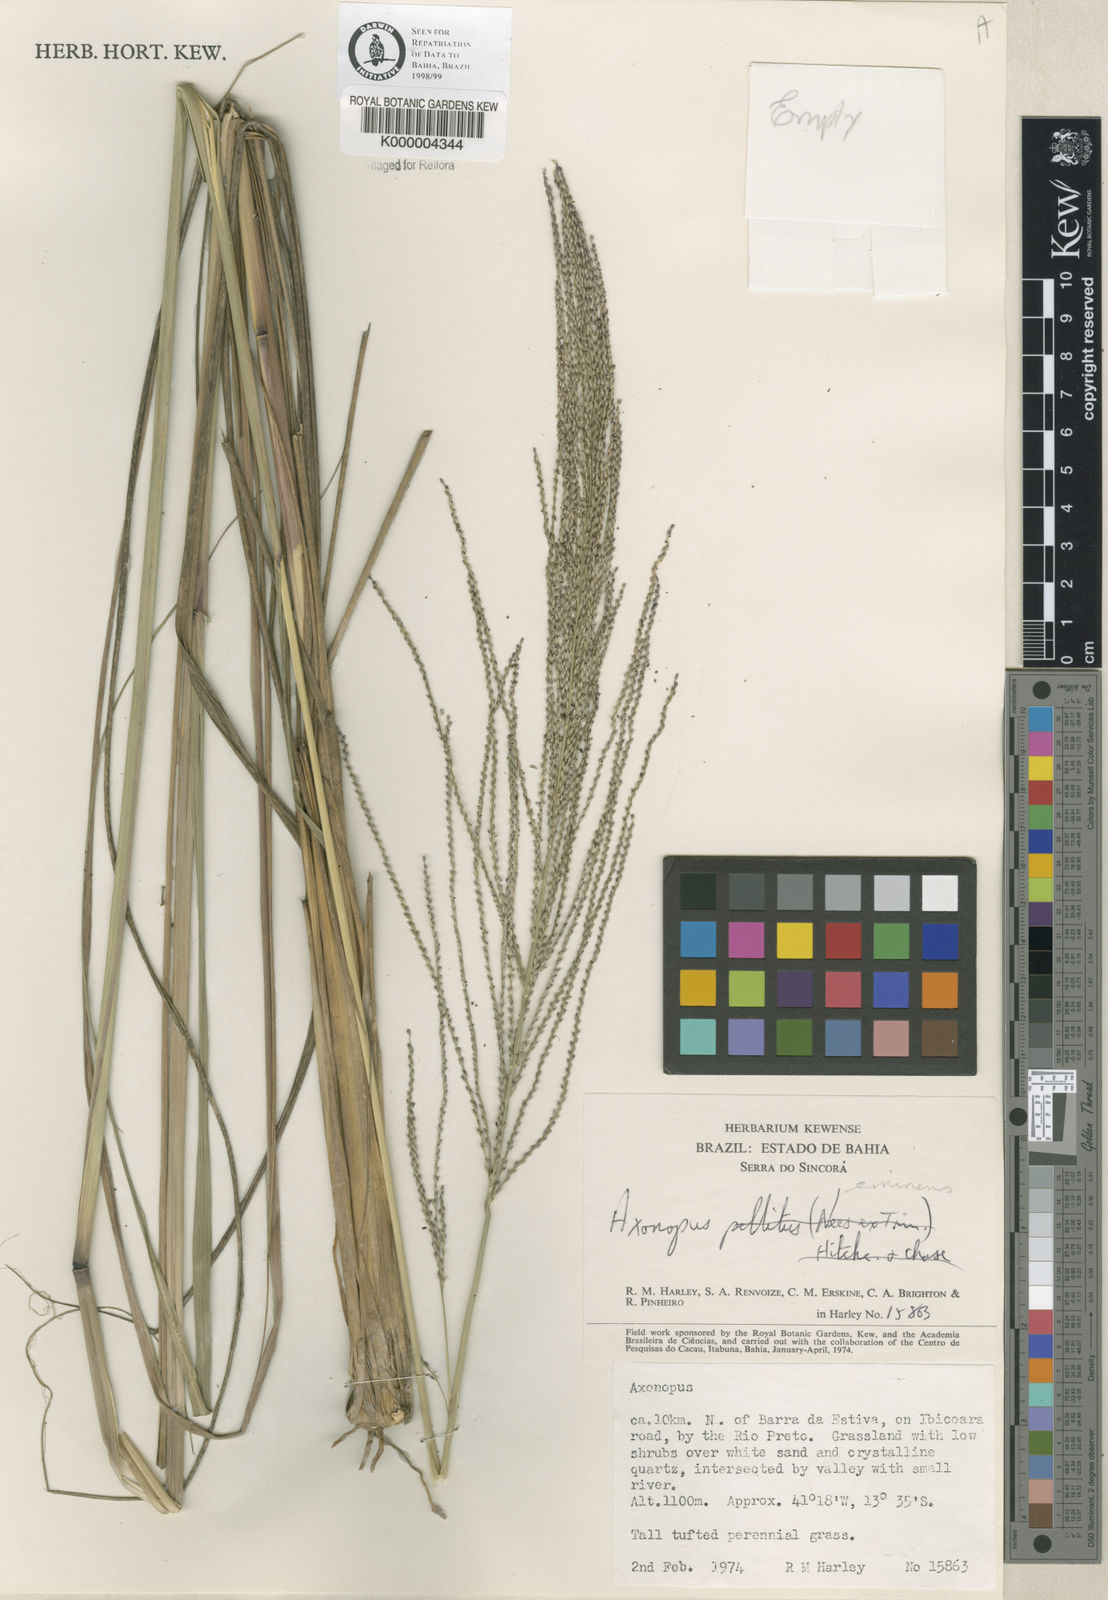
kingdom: Plantae
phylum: Tracheophyta
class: Liliopsida
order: Poales
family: Poaceae
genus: Axonopus
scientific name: Axonopus eminens
